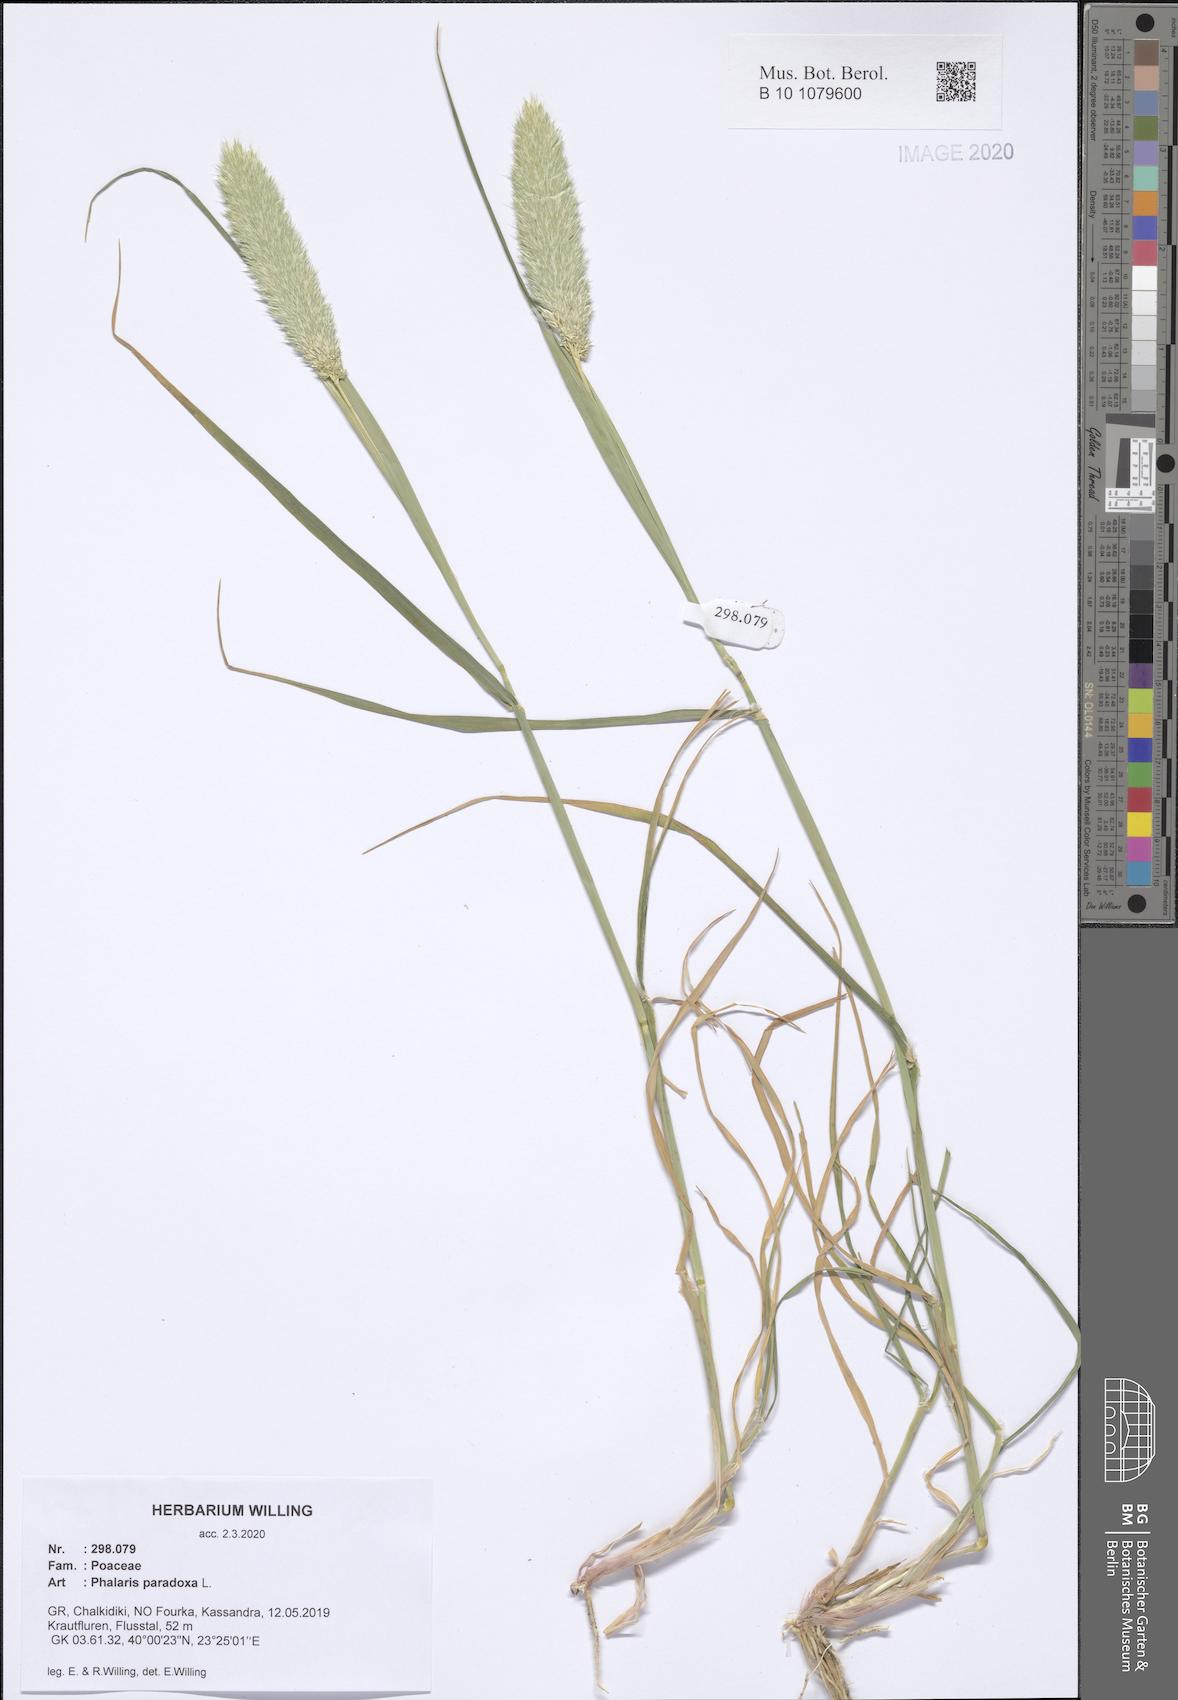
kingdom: Plantae
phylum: Tracheophyta
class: Liliopsida
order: Poales
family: Poaceae
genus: Phalaris
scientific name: Phalaris paradoxa
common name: Awned canary-grass
